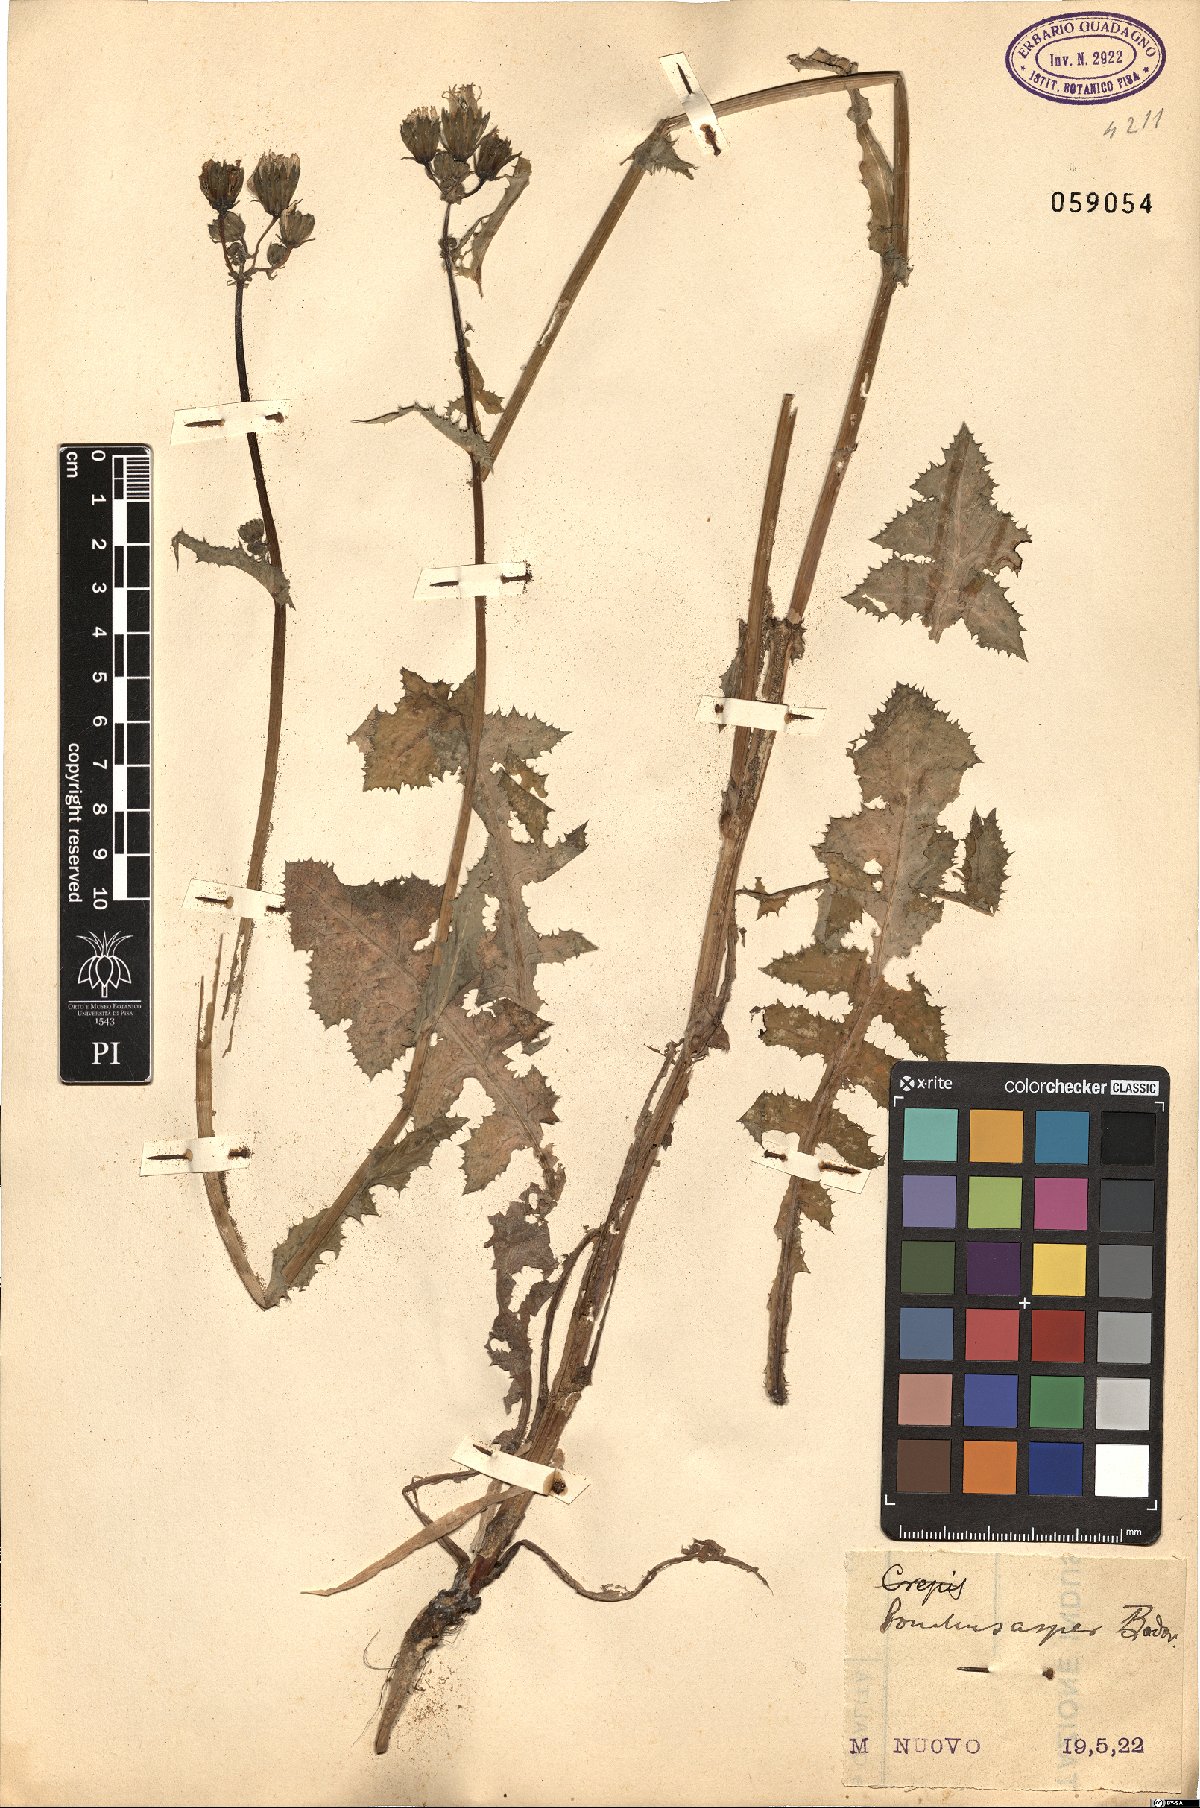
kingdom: Plantae
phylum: Tracheophyta
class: Magnoliopsida
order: Asterales
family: Asteraceae
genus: Sonchus
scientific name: Sonchus asper
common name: Prickly sow-thistle
